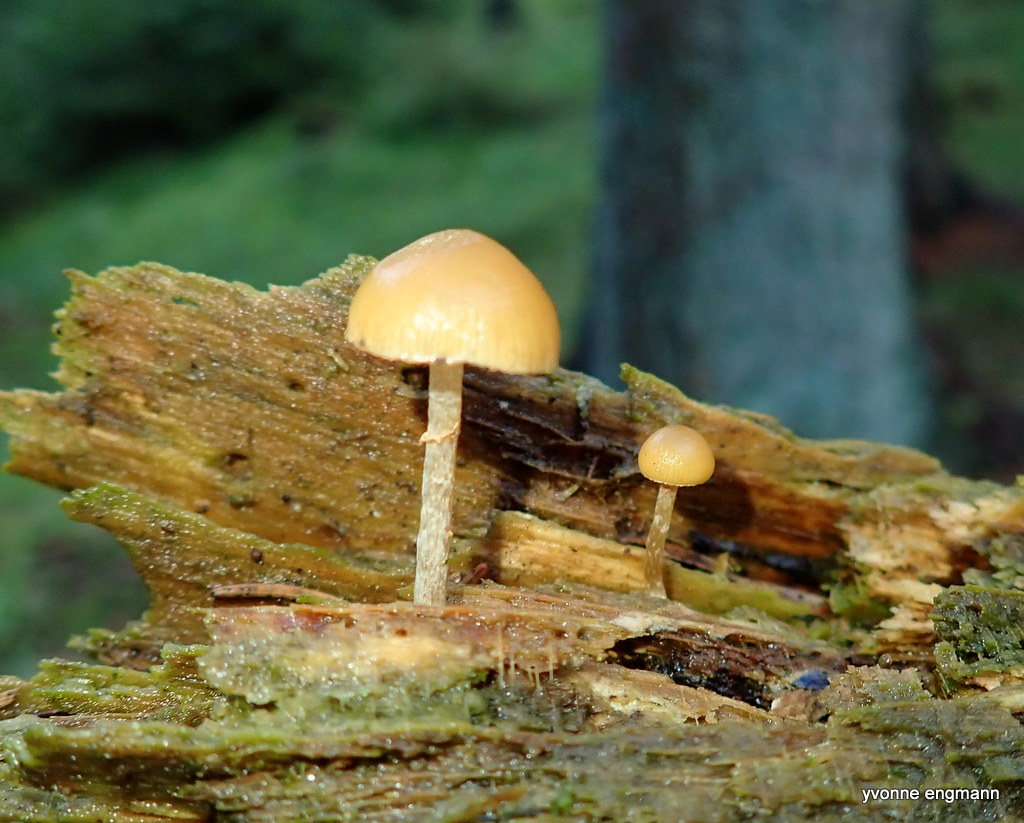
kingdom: Fungi
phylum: Basidiomycota
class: Agaricomycetes
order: Agaricales
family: Hymenogastraceae
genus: Galerina
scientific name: Galerina marginata
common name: randbæltet hjelmhat
